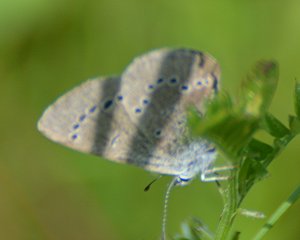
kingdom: Animalia
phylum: Arthropoda
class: Insecta
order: Lepidoptera
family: Lycaenidae
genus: Glaucopsyche
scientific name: Glaucopsyche lygdamus
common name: Silvery Blue
